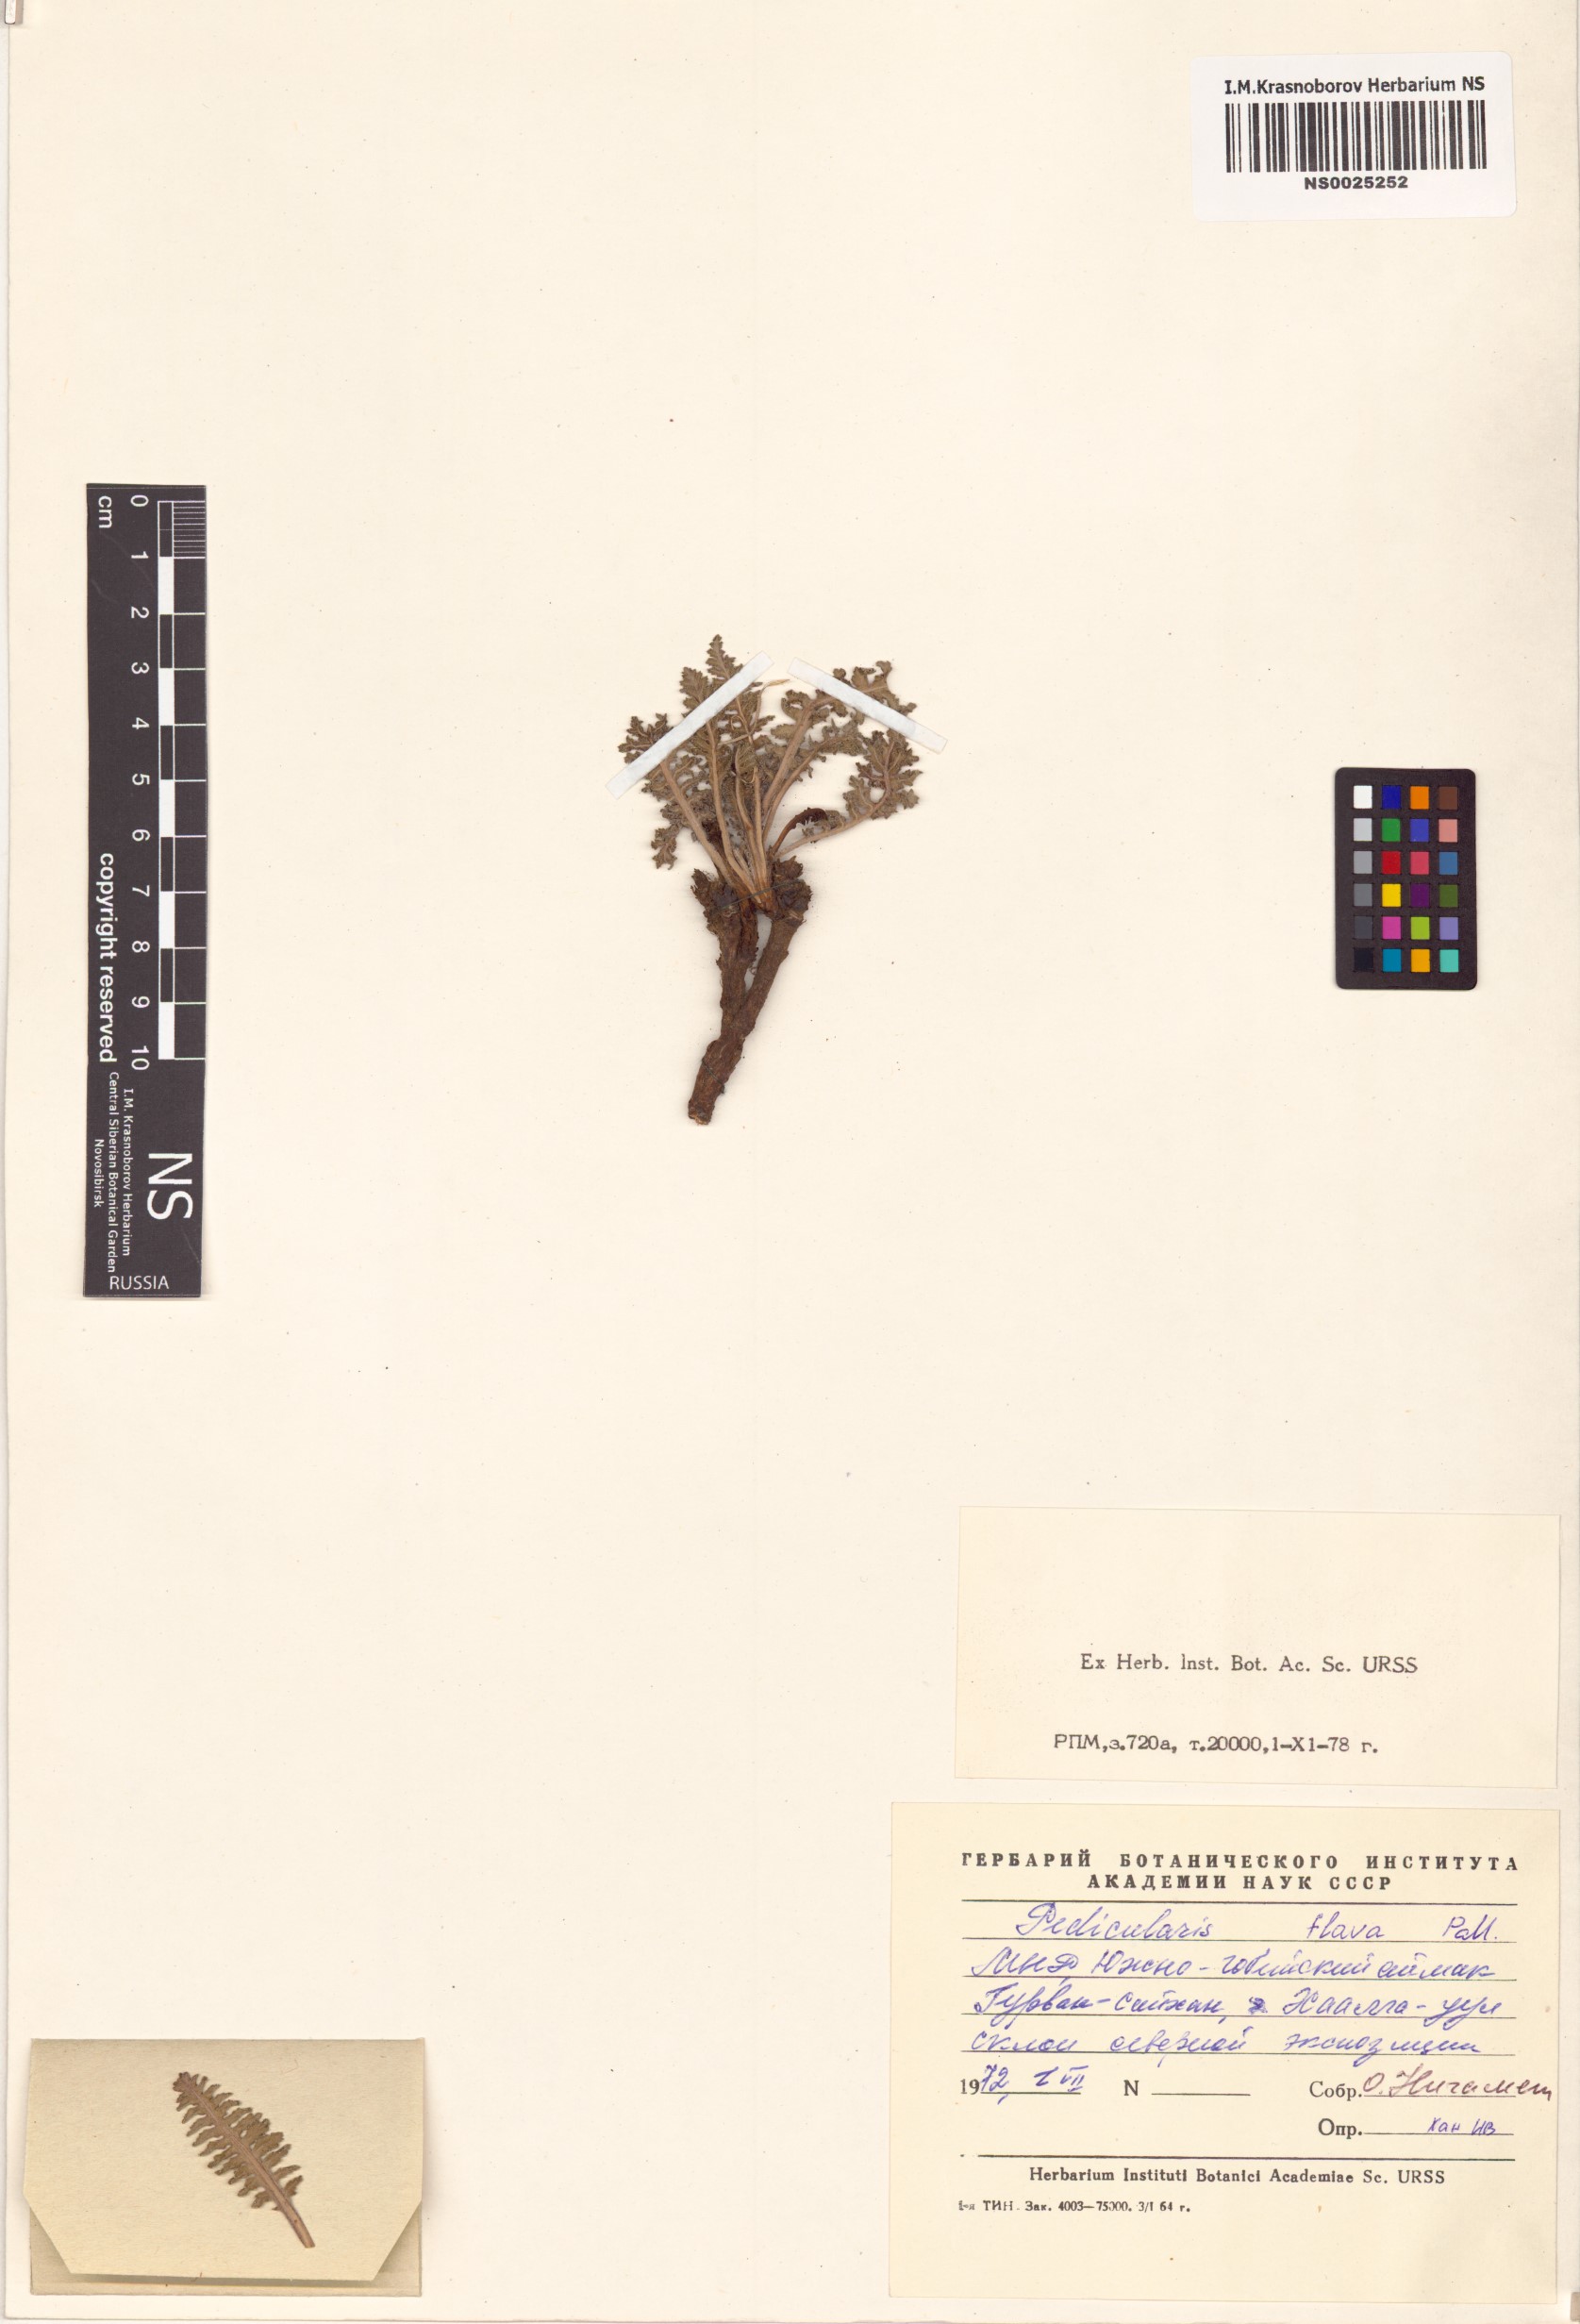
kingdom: Plantae
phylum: Tracheophyta
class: Magnoliopsida
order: Lamiales
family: Orobanchaceae
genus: Pedicularis
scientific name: Pedicularis flava
